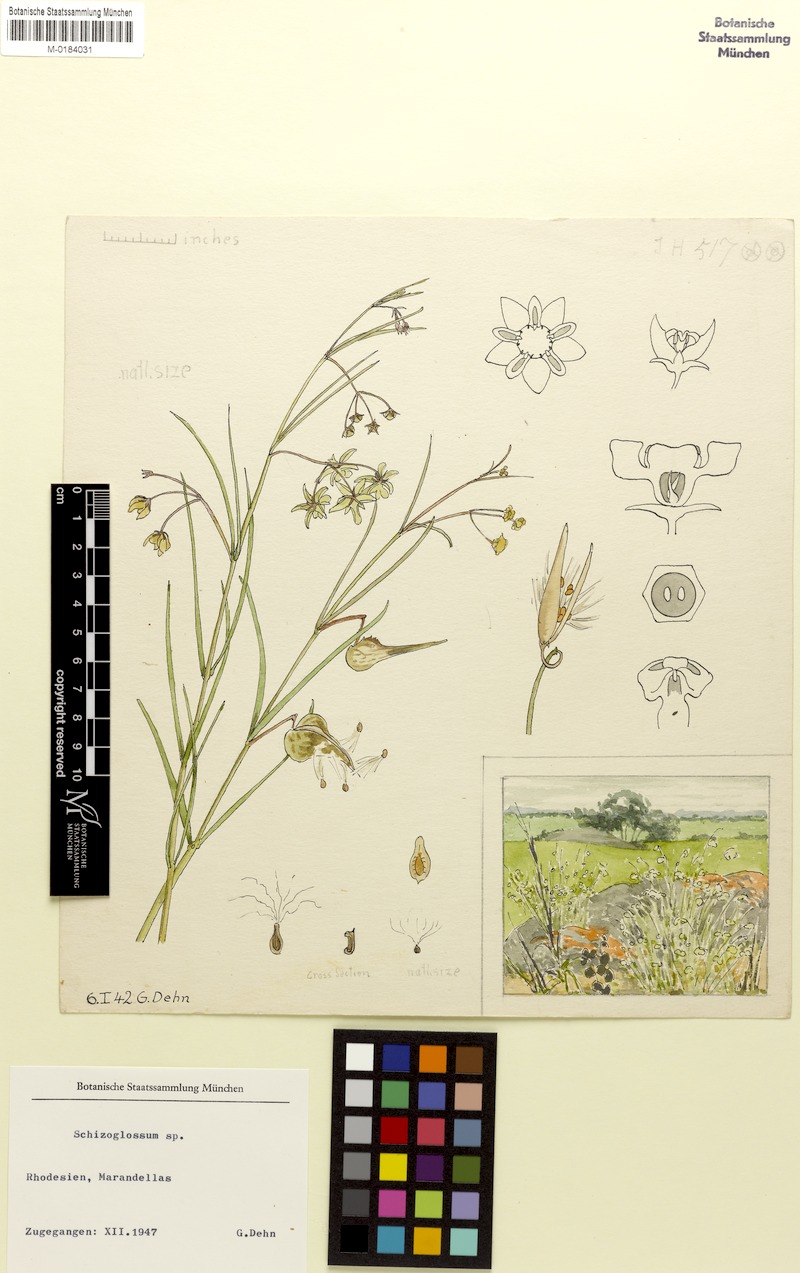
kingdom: Plantae
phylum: Tracheophyta
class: Magnoliopsida
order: Gentianales
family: Apocynaceae
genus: Schizoglossum
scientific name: Schizoglossum
